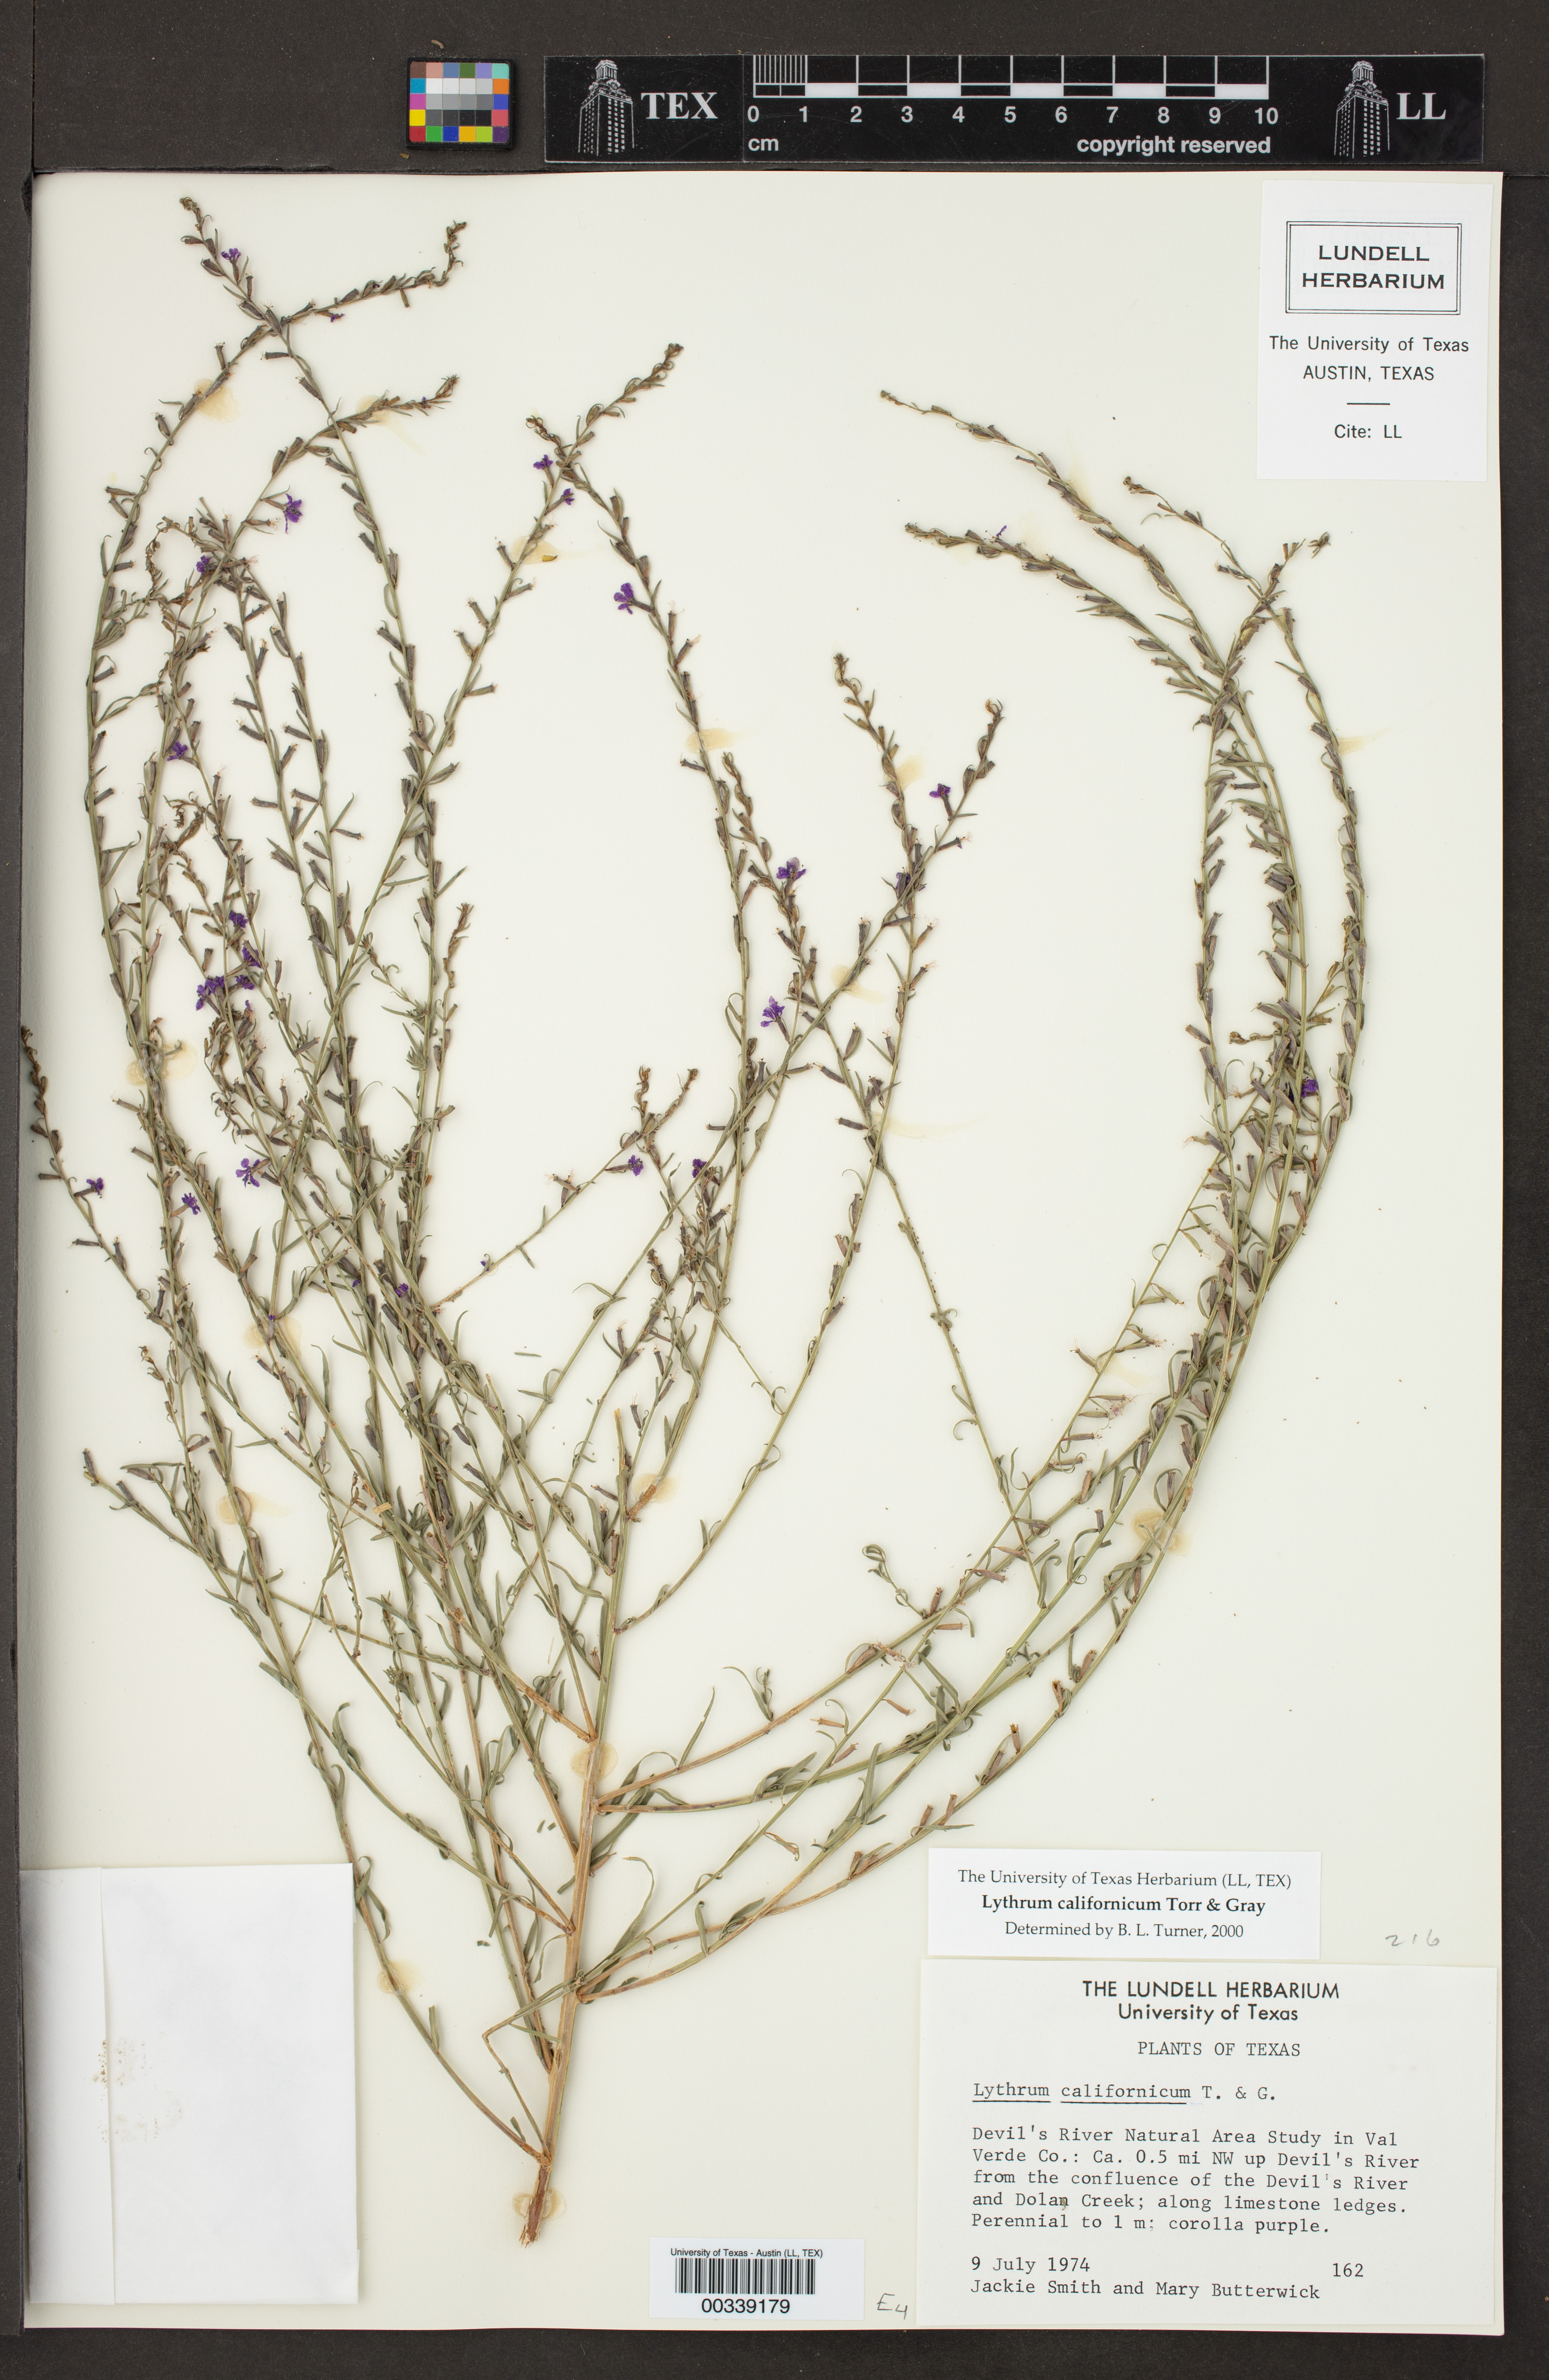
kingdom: Plantae
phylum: Tracheophyta
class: Magnoliopsida
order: Myrtales
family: Lythraceae
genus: Lythrum
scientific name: Lythrum californicum
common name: California loosestrife
